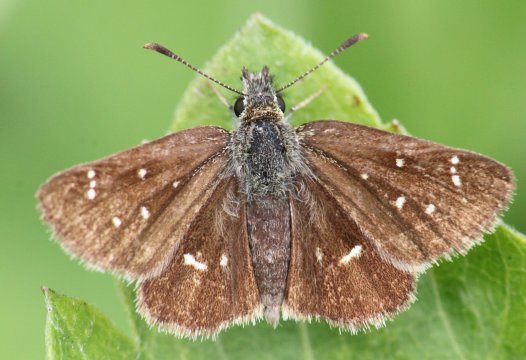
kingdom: Animalia
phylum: Arthropoda
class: Insecta
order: Lepidoptera
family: Hesperiidae
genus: Piruna
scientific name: Piruna polingii
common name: Four-spotted Skipperling
